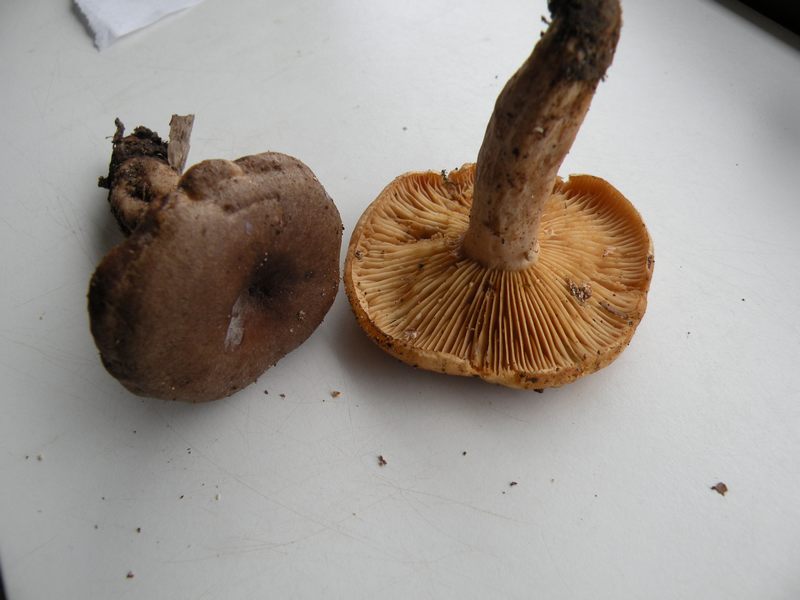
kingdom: Fungi
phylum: Basidiomycota
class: Agaricomycetes
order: Russulales
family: Russulaceae
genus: Lactarius
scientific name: Lactarius pyrogalus
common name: hassel-mælkehat
